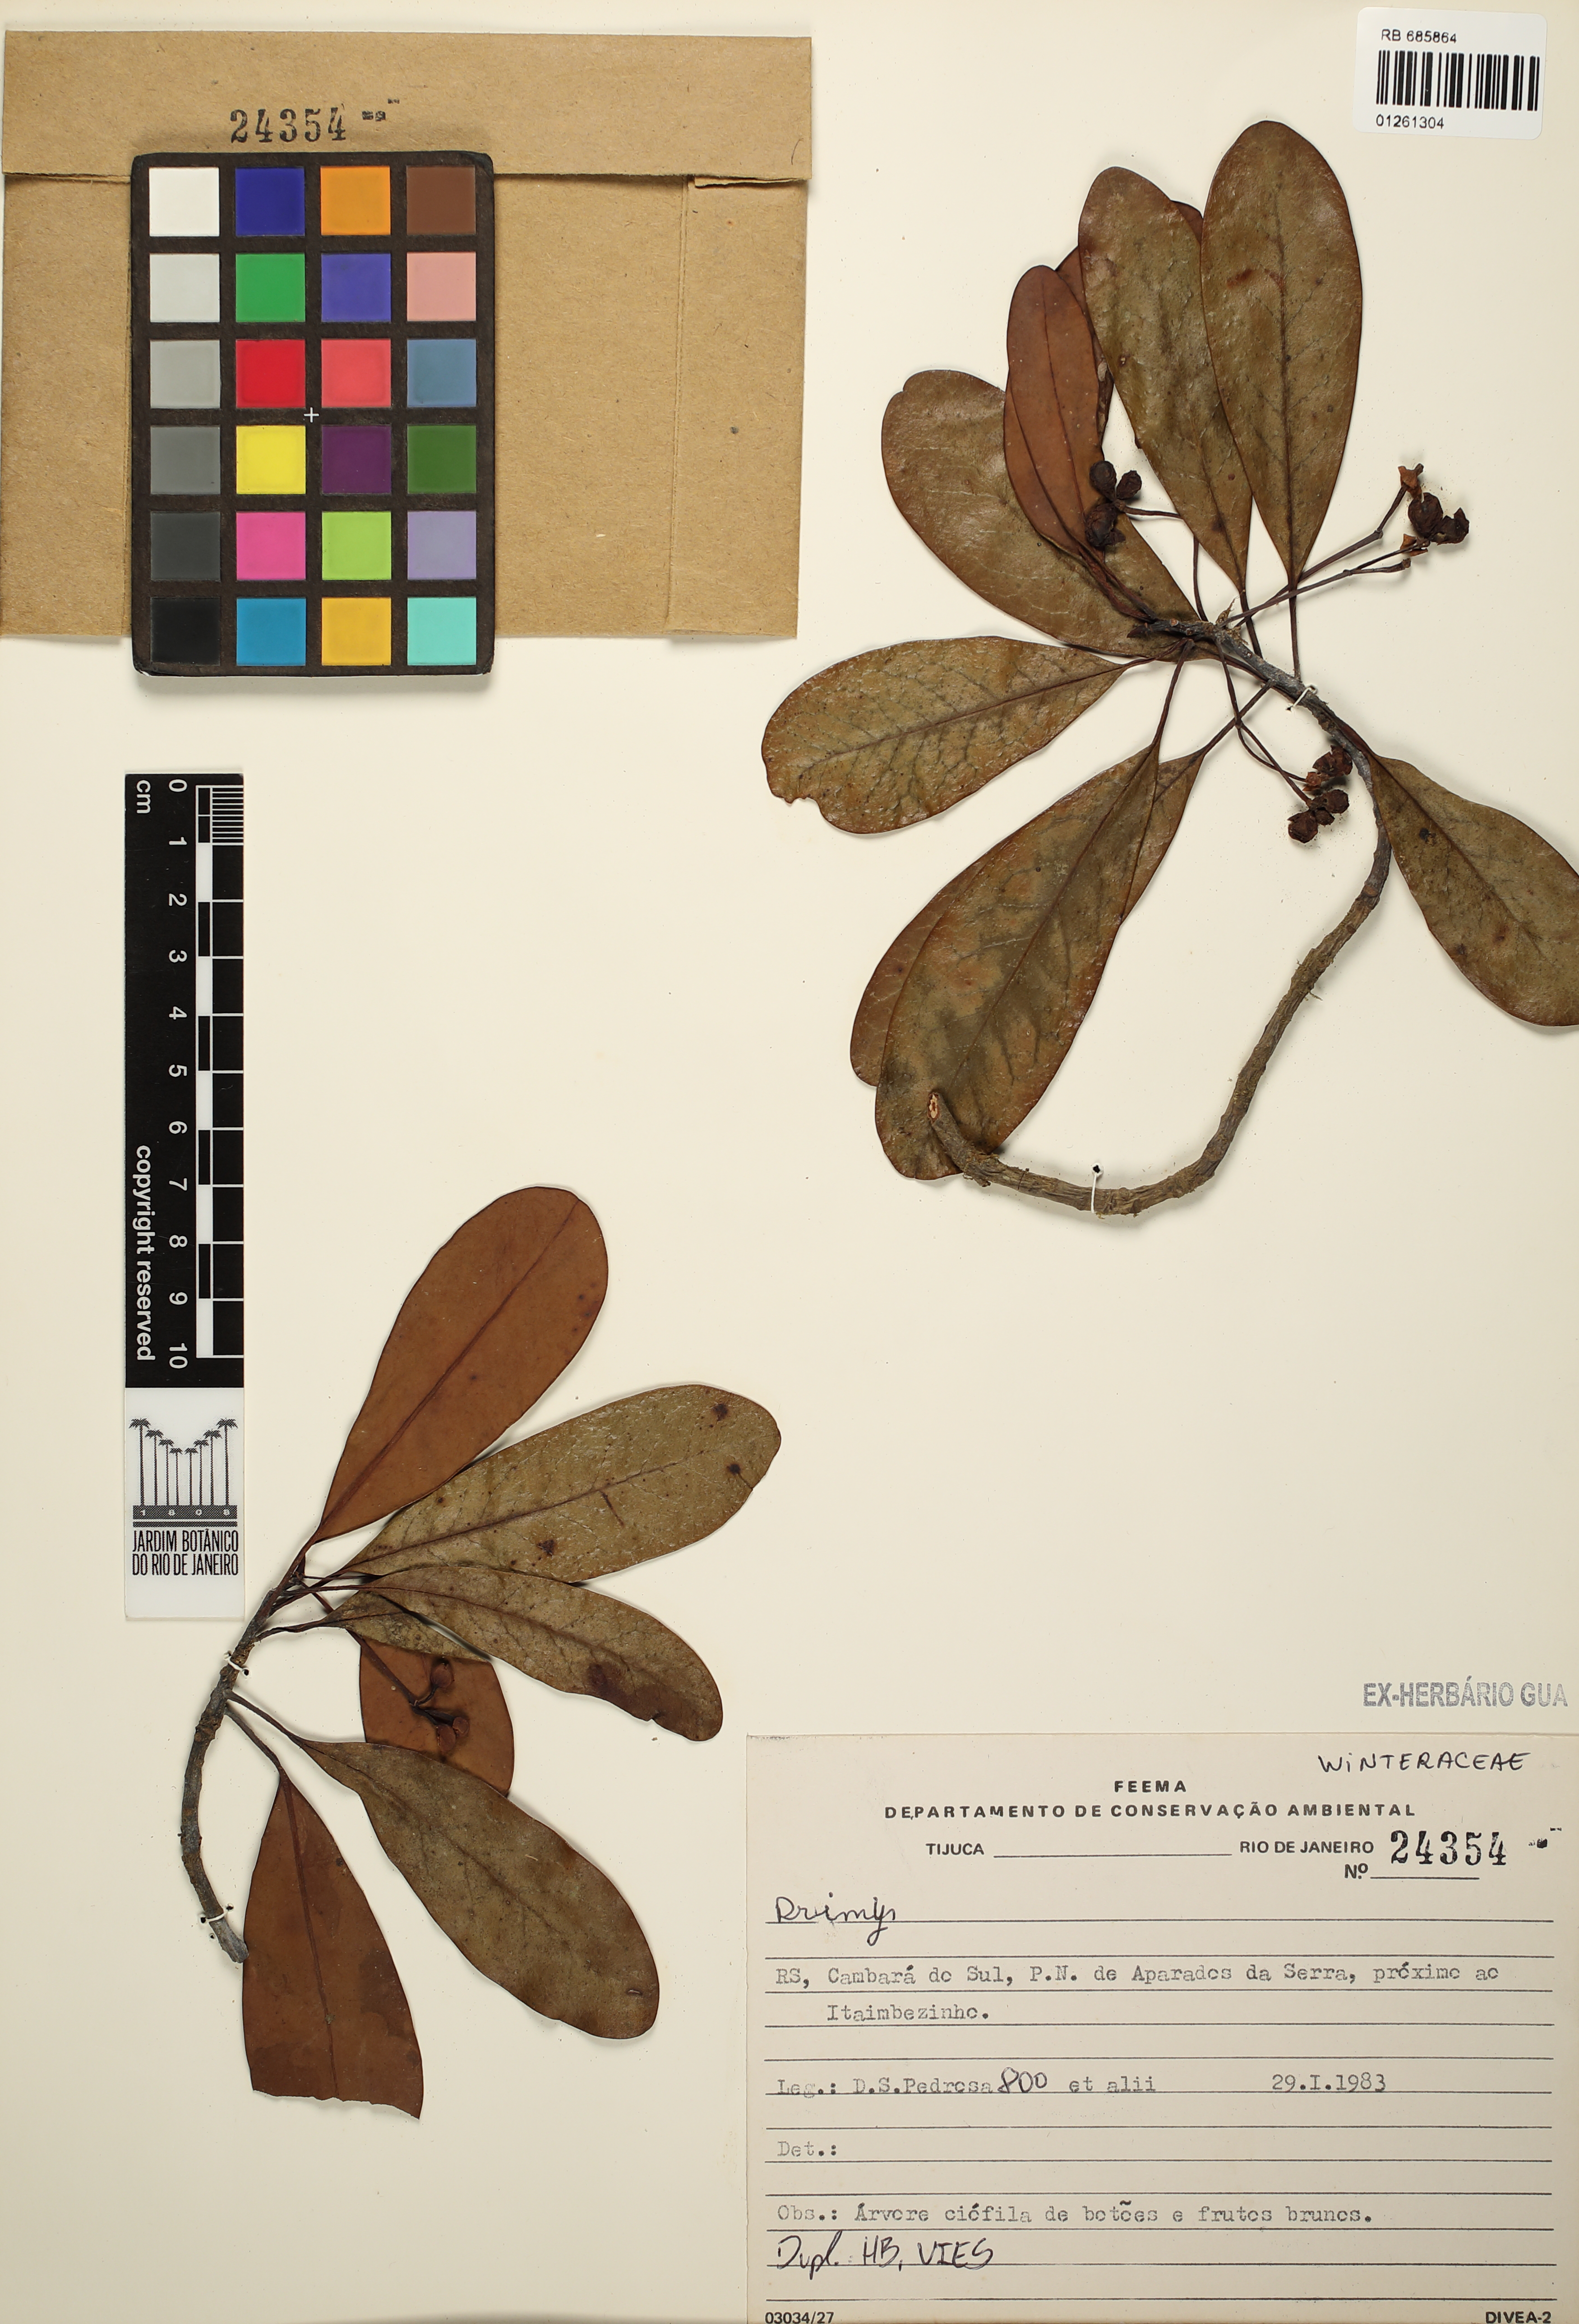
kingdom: Plantae
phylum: Tracheophyta
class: Magnoliopsida
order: Canellales
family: Winteraceae
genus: Drimys
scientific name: Drimys
